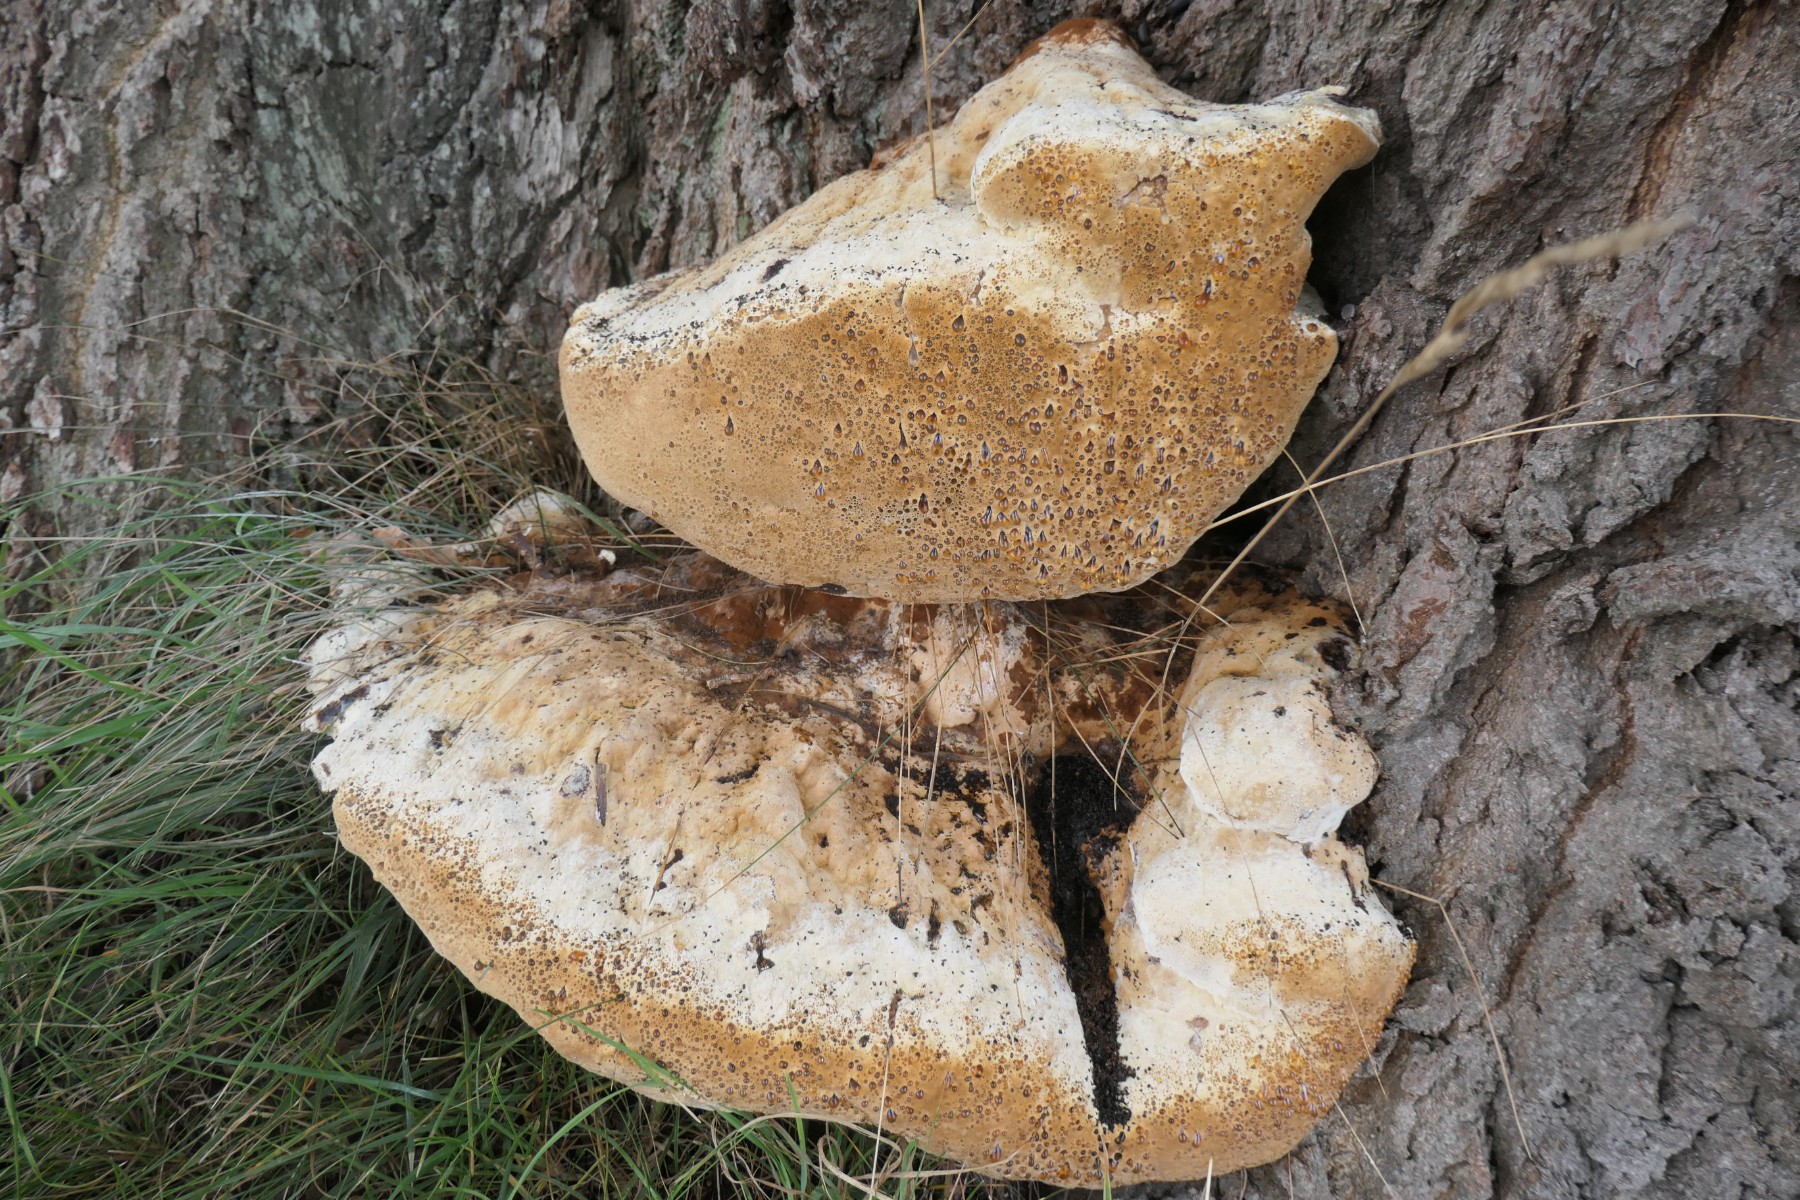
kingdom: Fungi
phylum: Basidiomycota
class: Agaricomycetes
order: Hymenochaetales
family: Hymenochaetaceae
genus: Pseudoinonotus
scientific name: Pseudoinonotus dryadeus
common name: ege-spejlporesvamp
